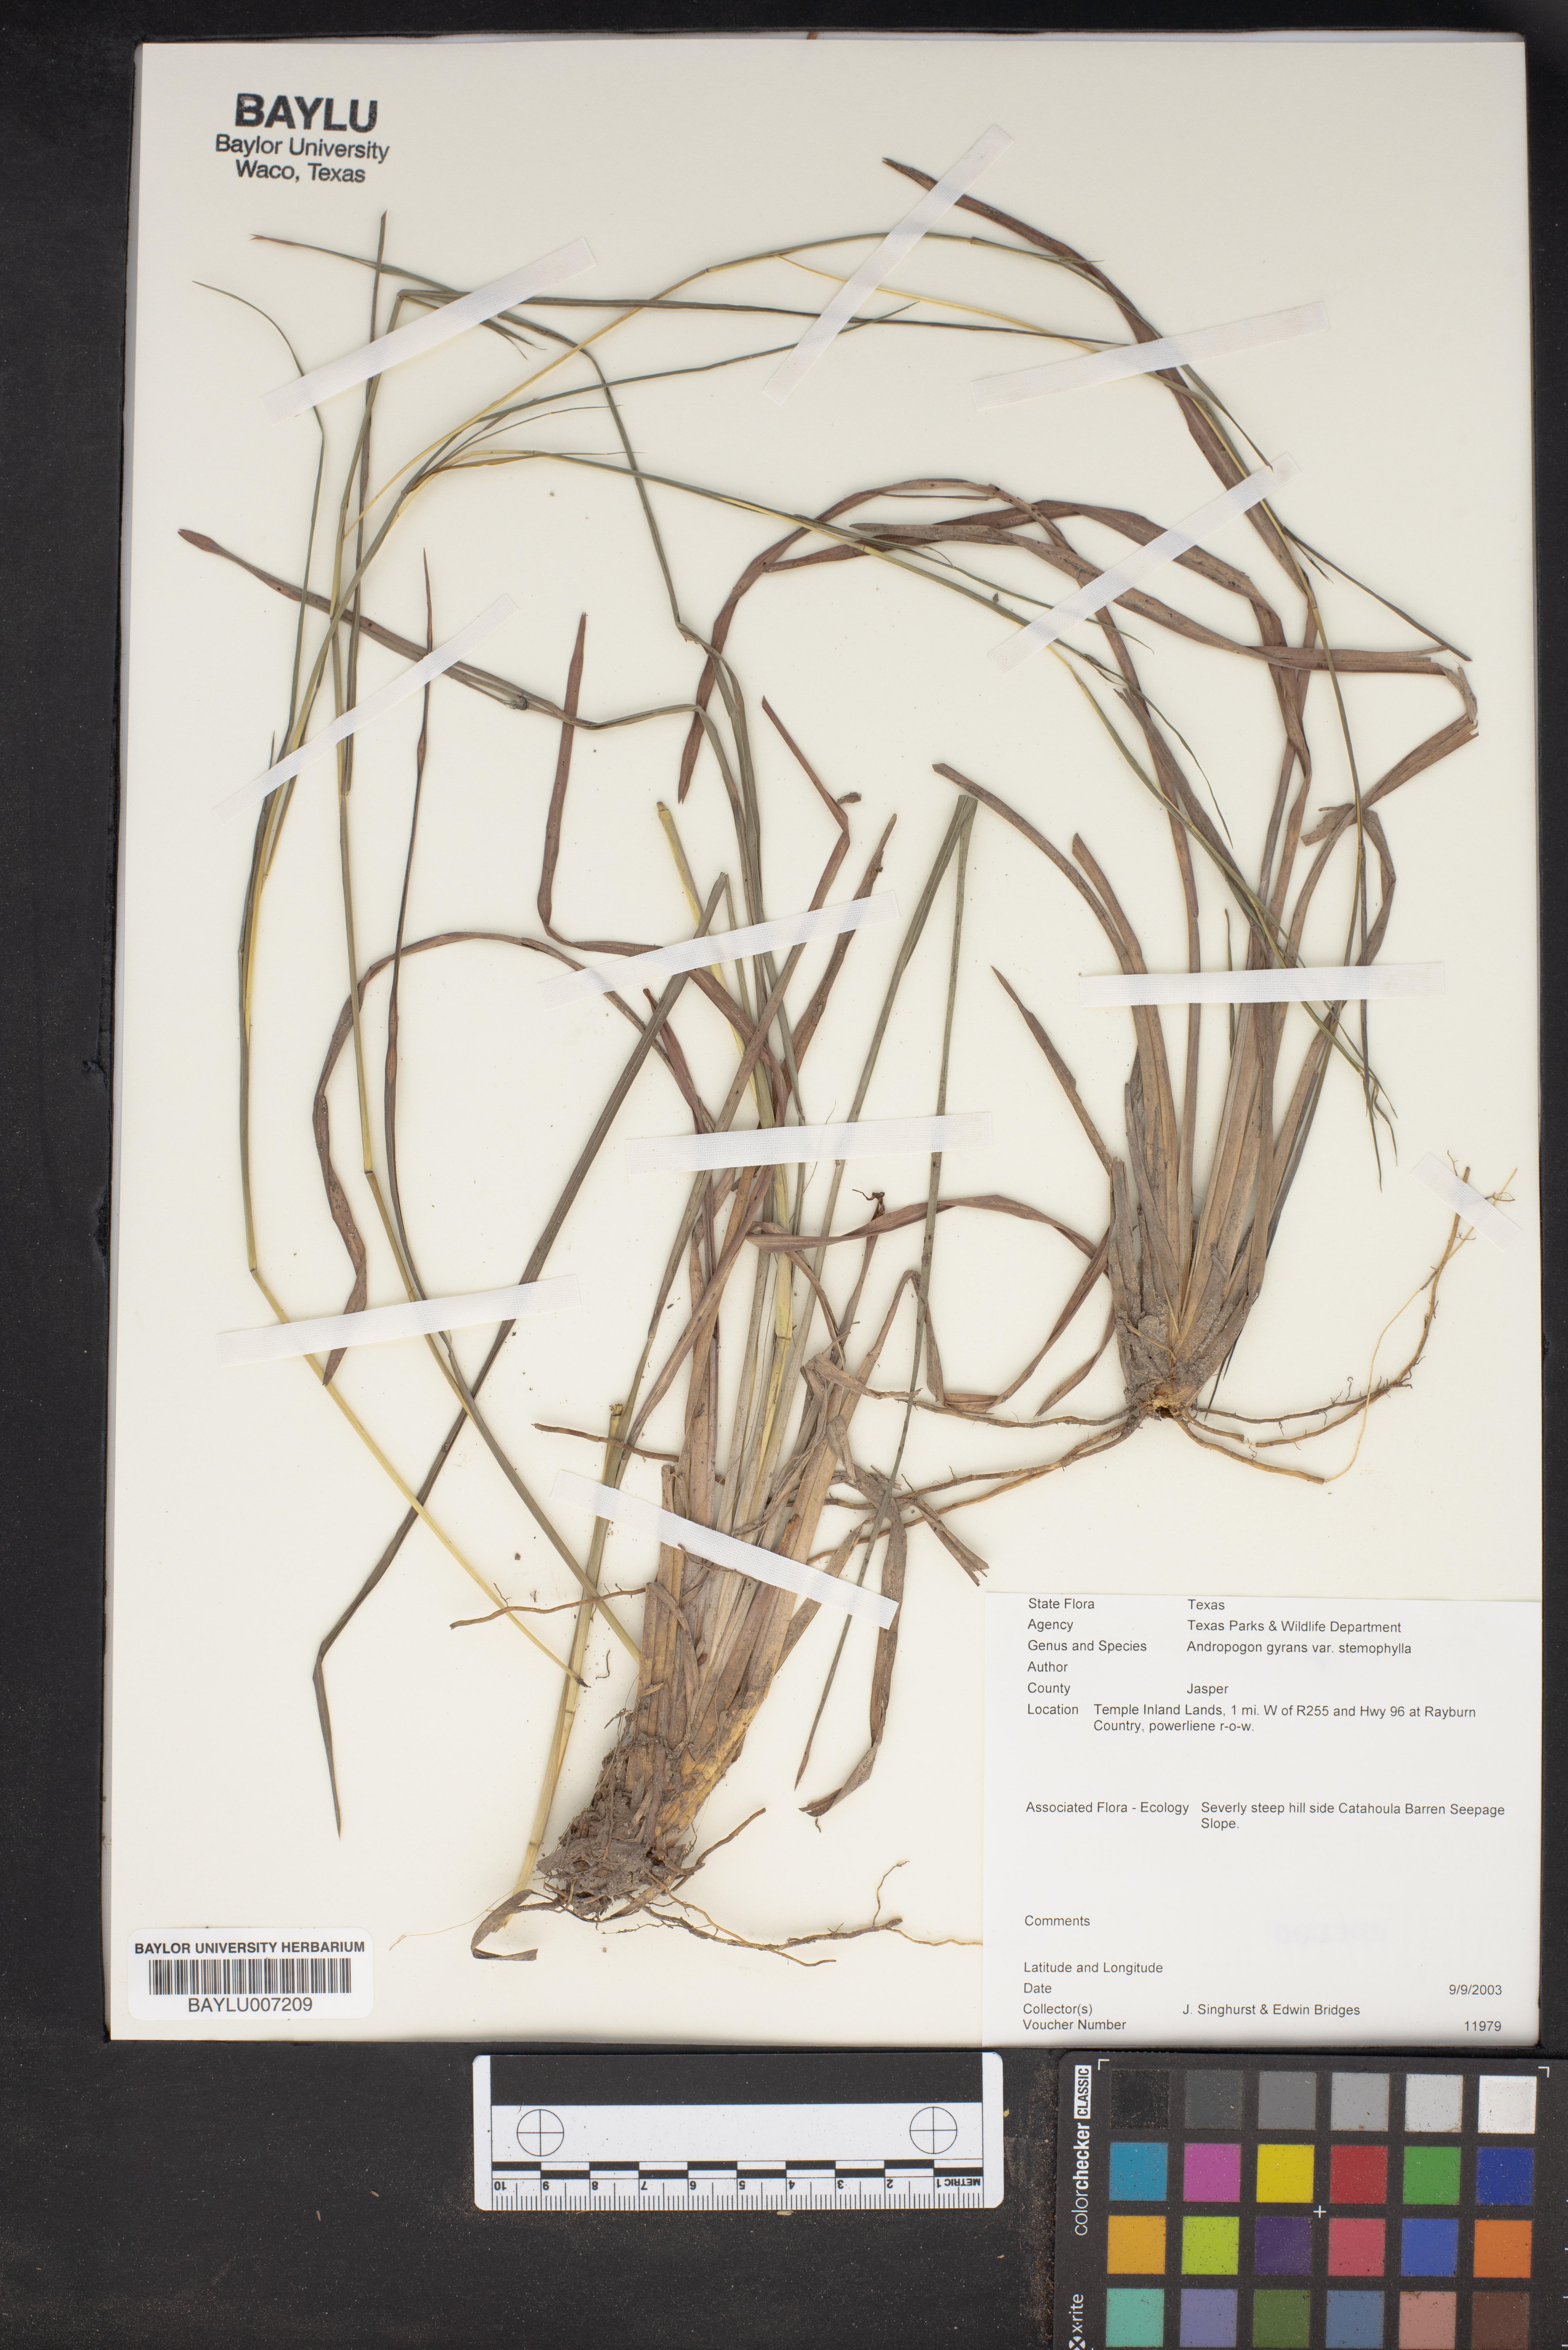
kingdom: Plantae
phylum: Tracheophyta
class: Liliopsida
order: Poales
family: Poaceae
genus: Andropogon
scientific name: Andropogon perangustatus
